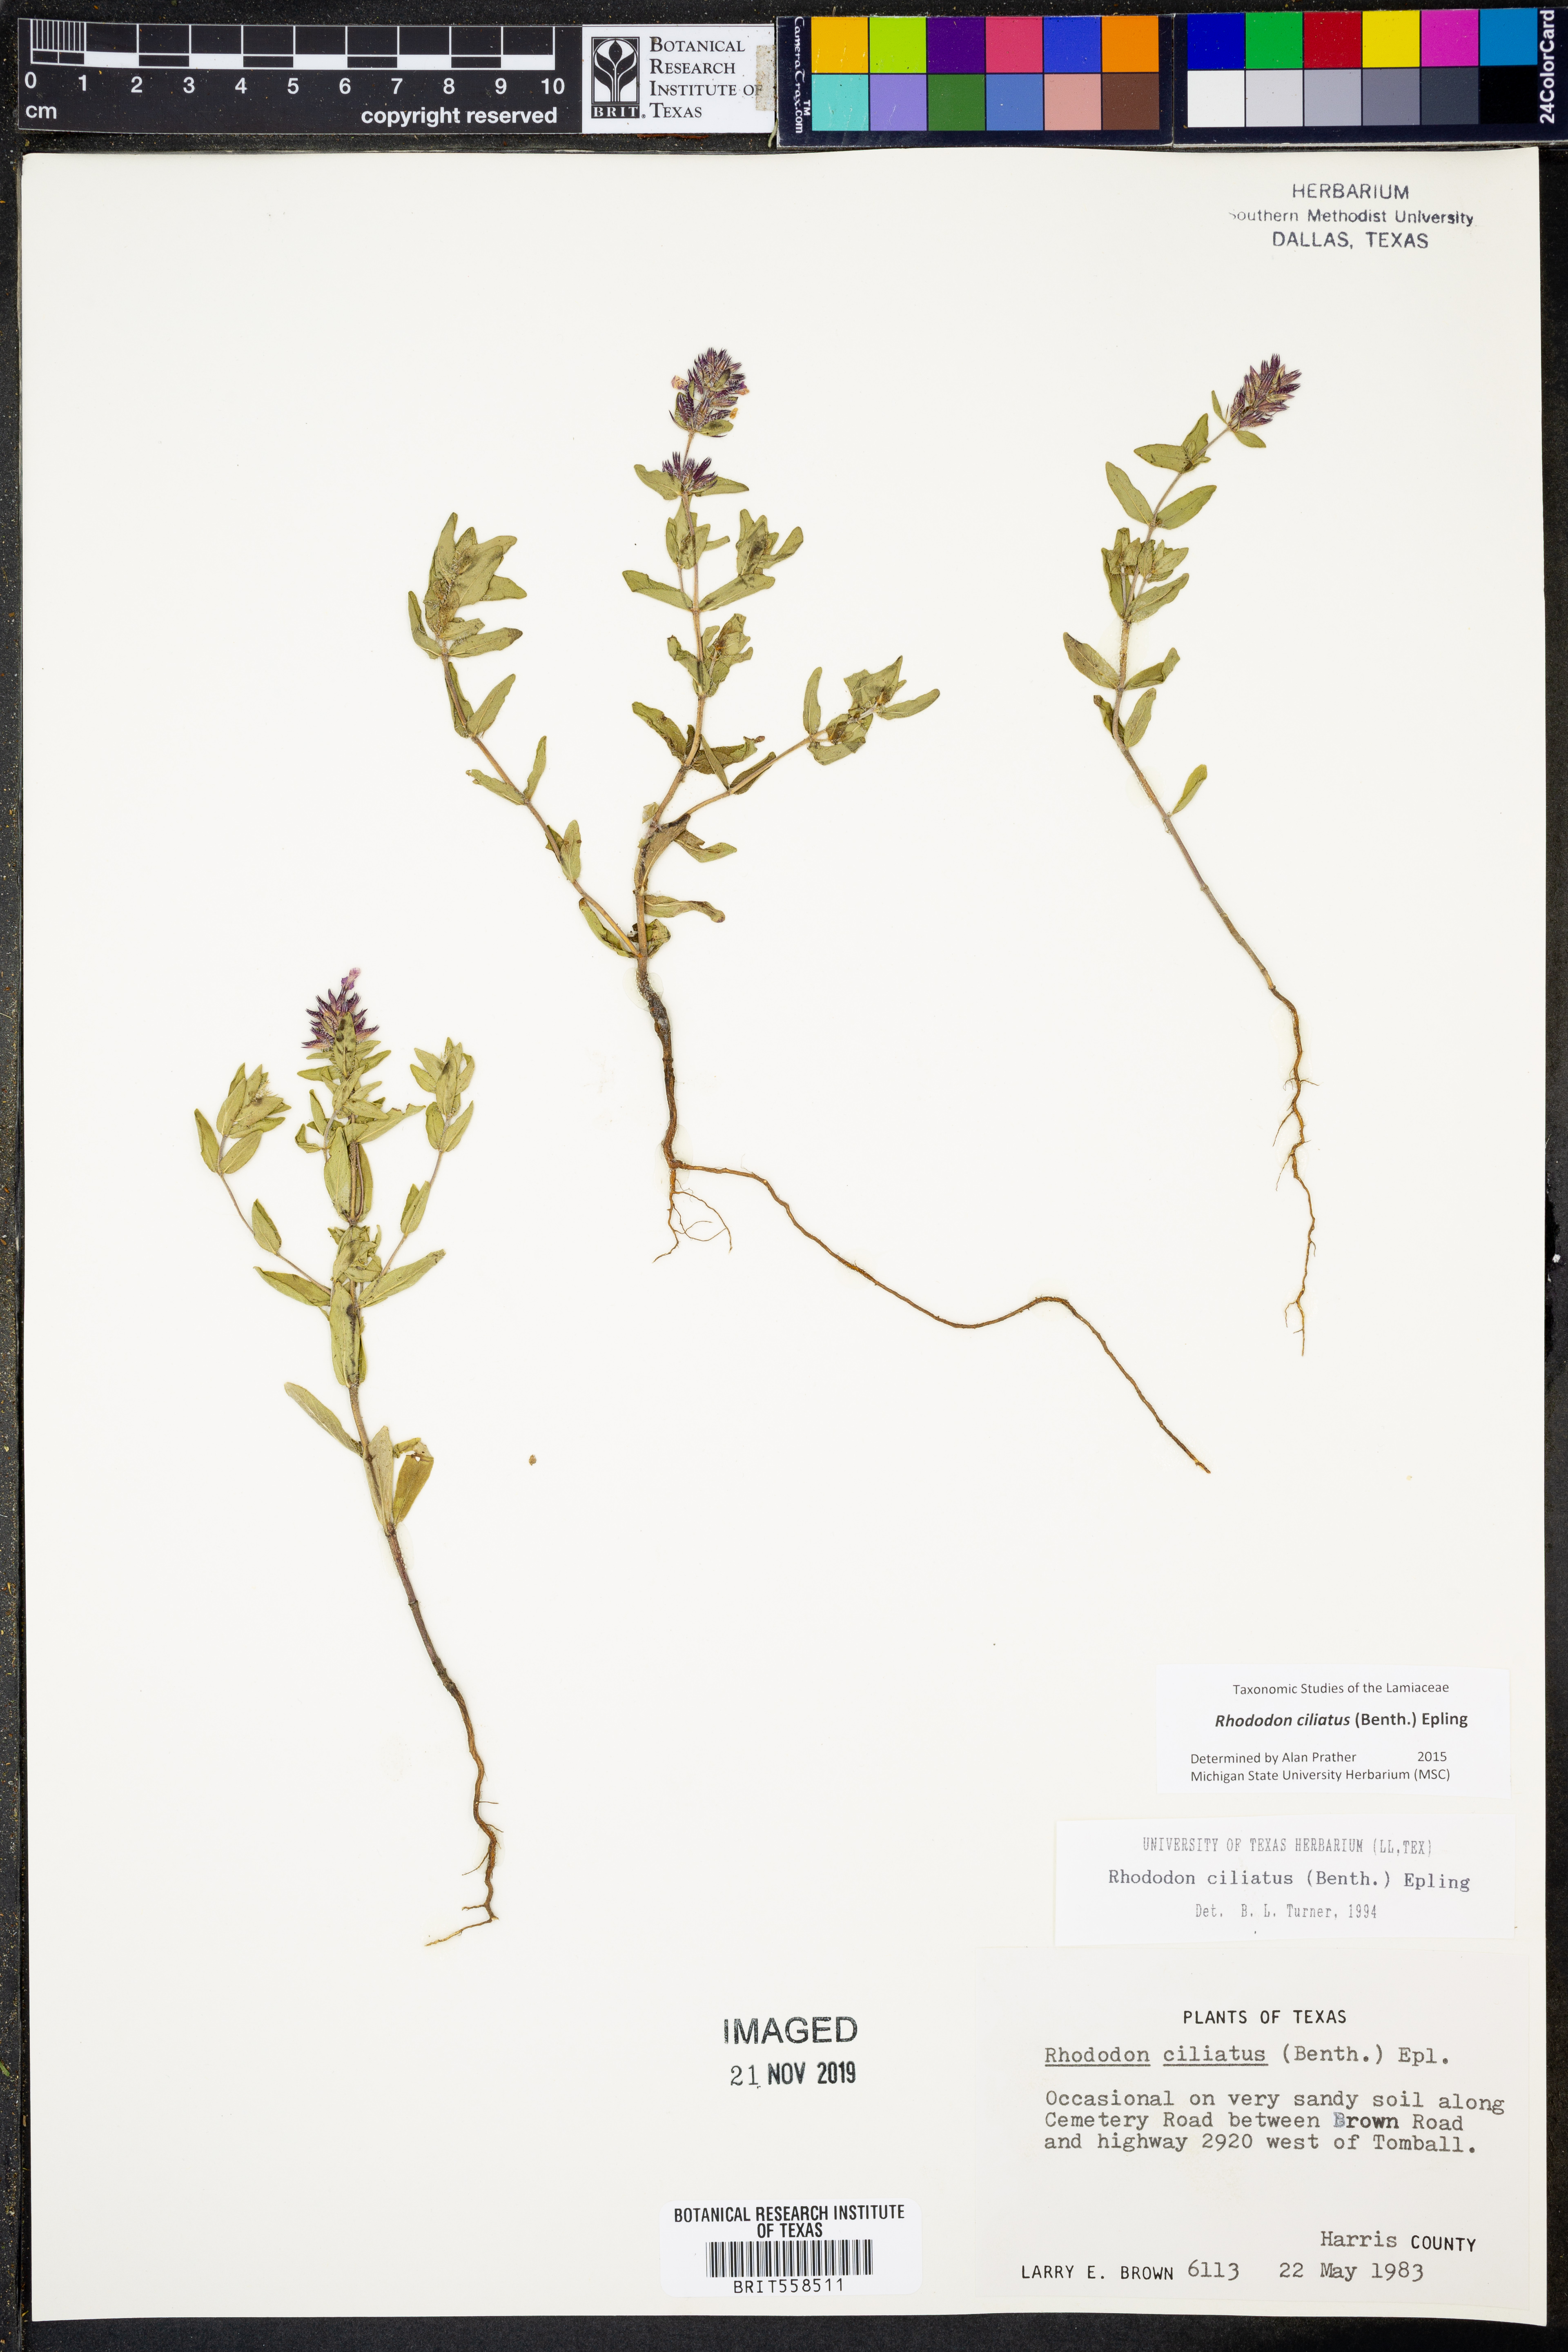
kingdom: Plantae
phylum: Tracheophyta
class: Magnoliopsida
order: Lamiales
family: Lamiaceae
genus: Rhododon
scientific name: Rhododon ciliatus
